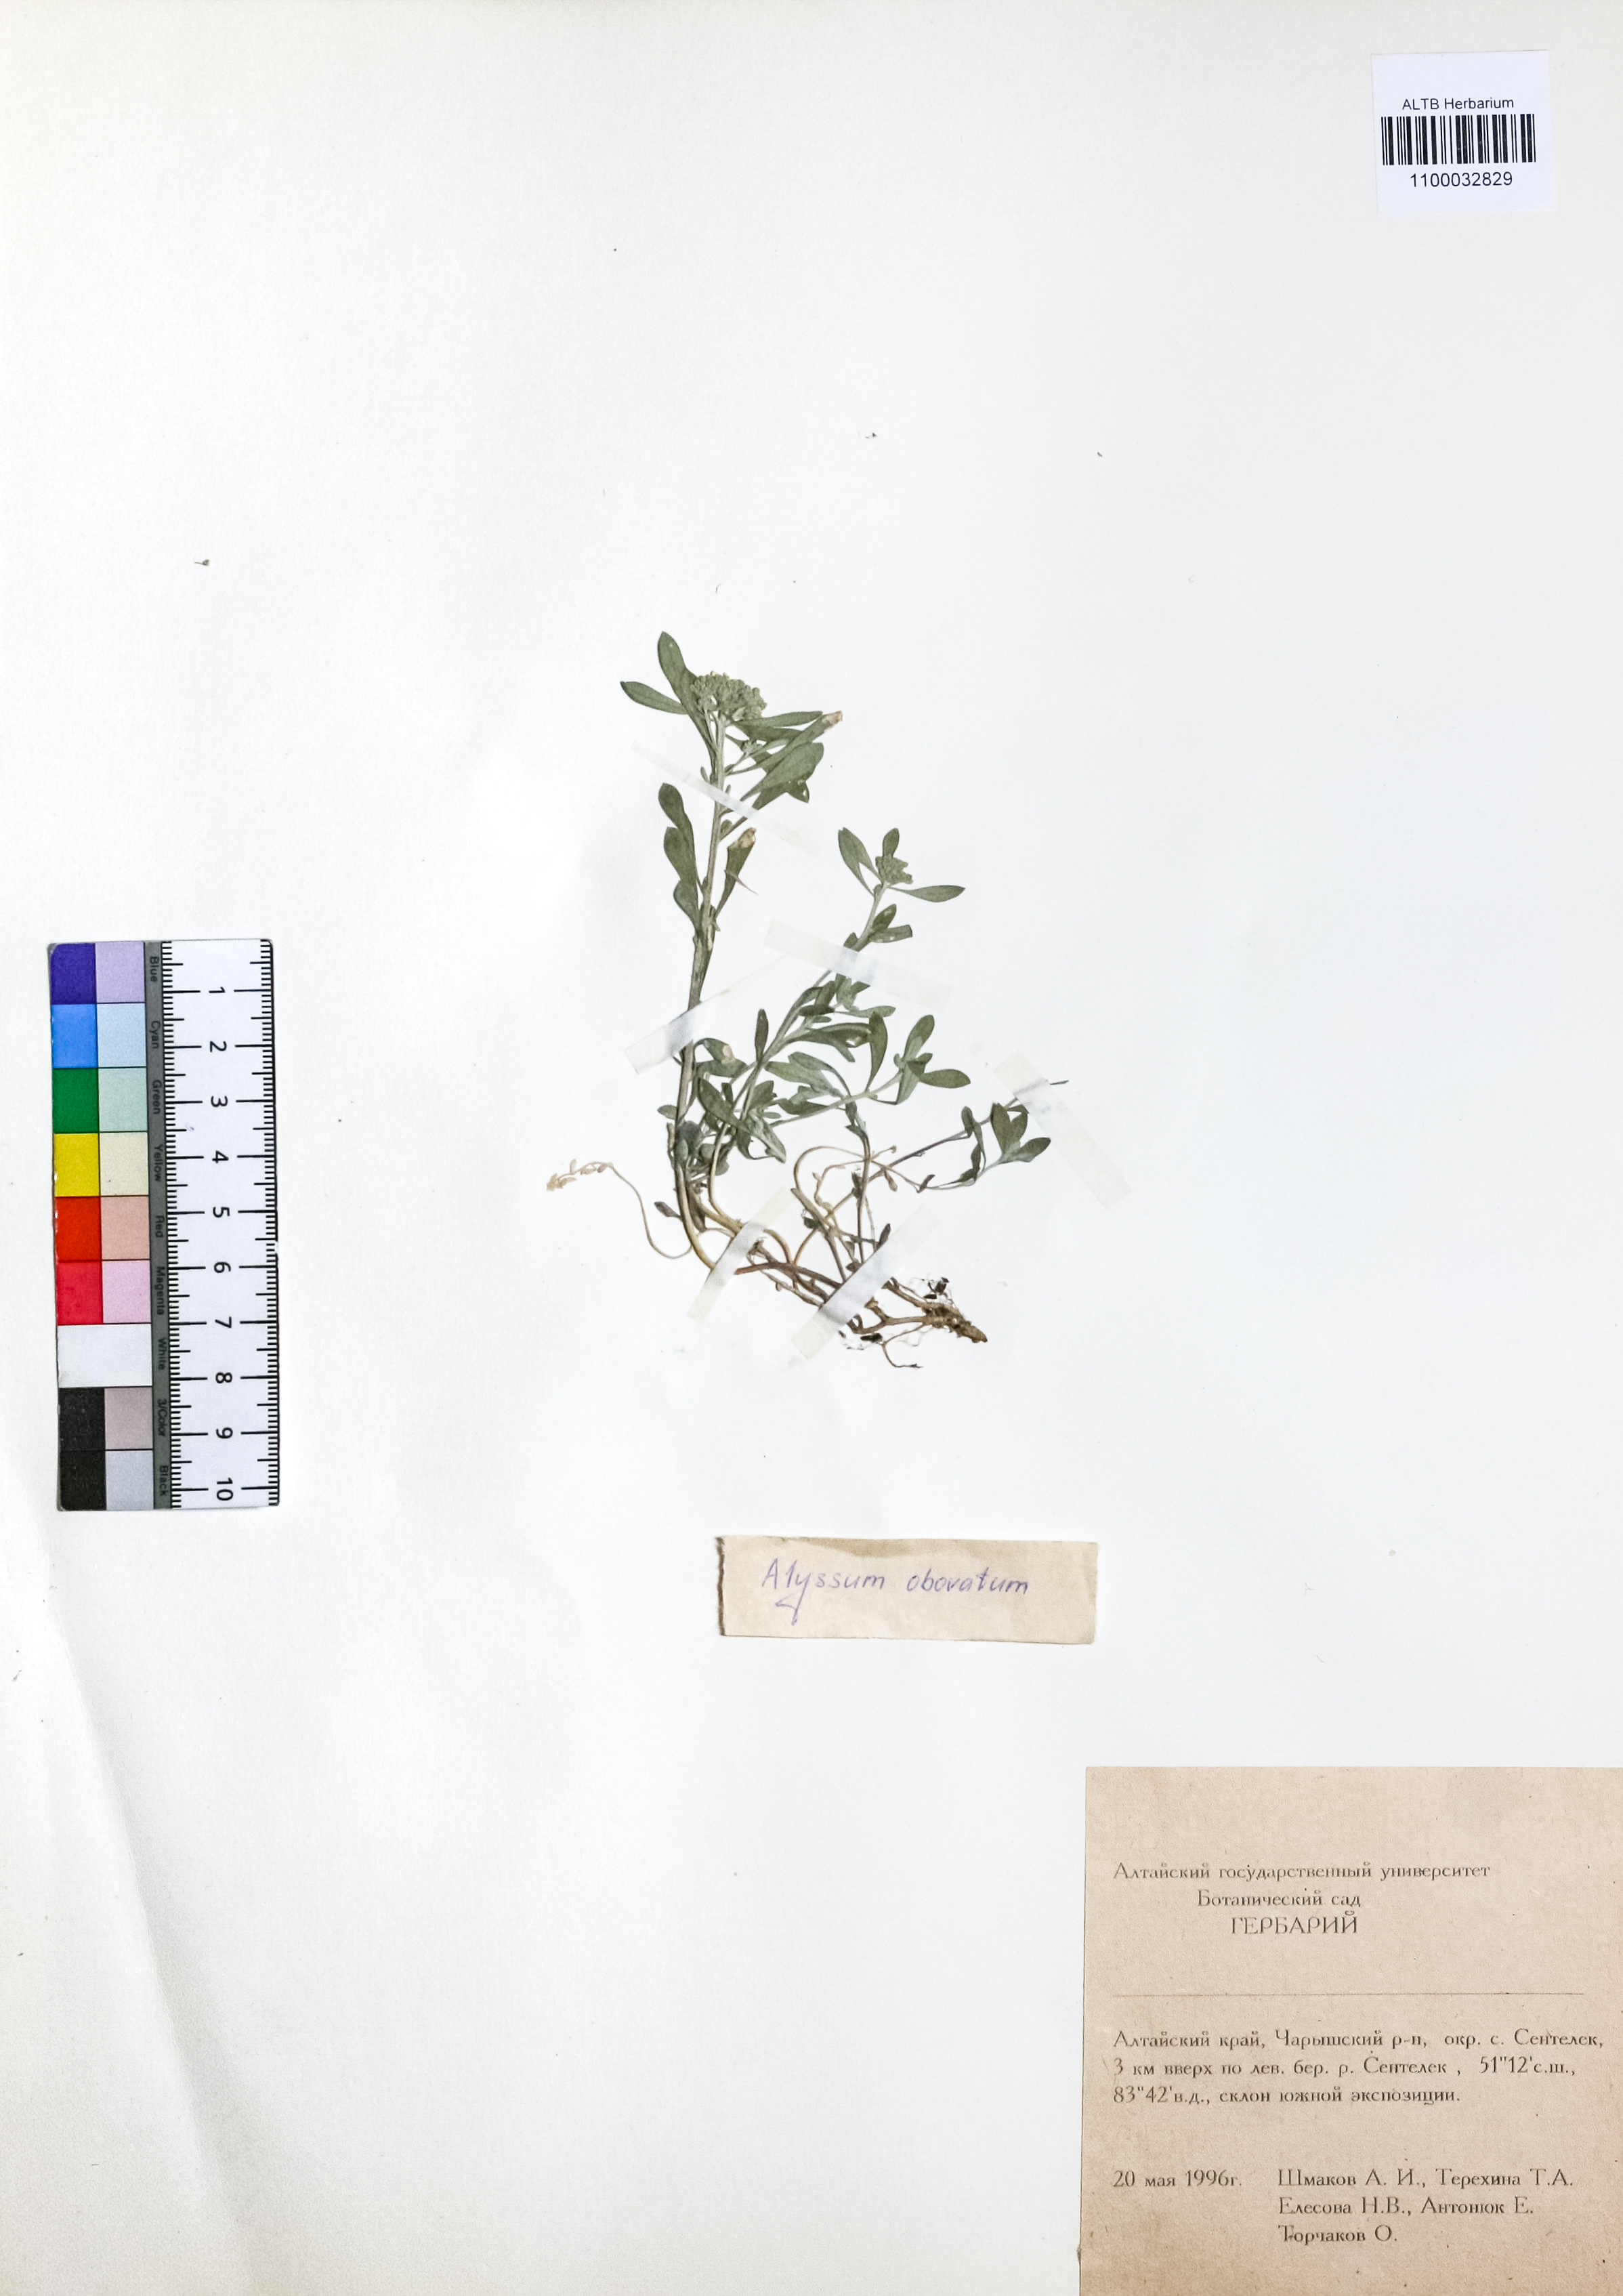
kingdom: Plantae
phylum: Tracheophyta
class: Magnoliopsida
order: Brassicales
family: Brassicaceae
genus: Odontarrhena
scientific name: Odontarrhena obovata
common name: American alyssum
